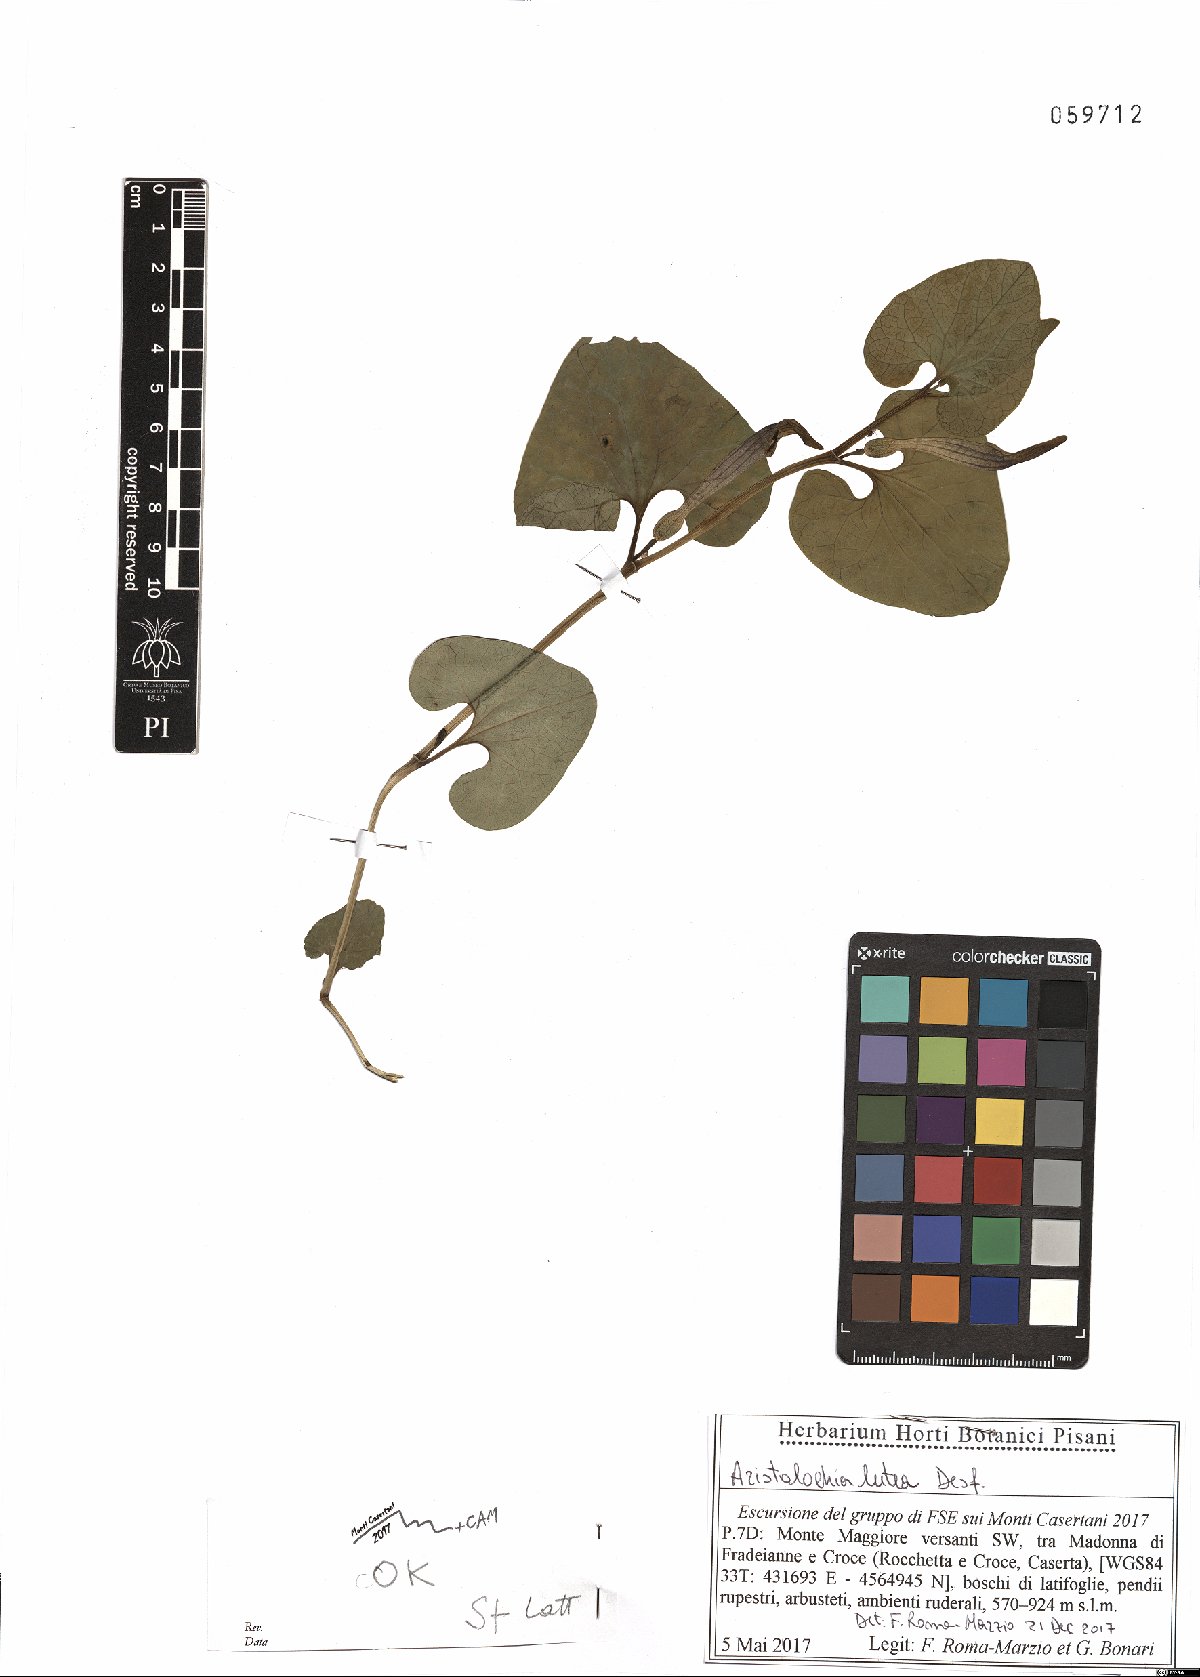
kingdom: Plantae
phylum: Tracheophyta
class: Magnoliopsida
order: Piperales
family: Aristolochiaceae
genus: Aristolochia
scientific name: Aristolochia lutea
